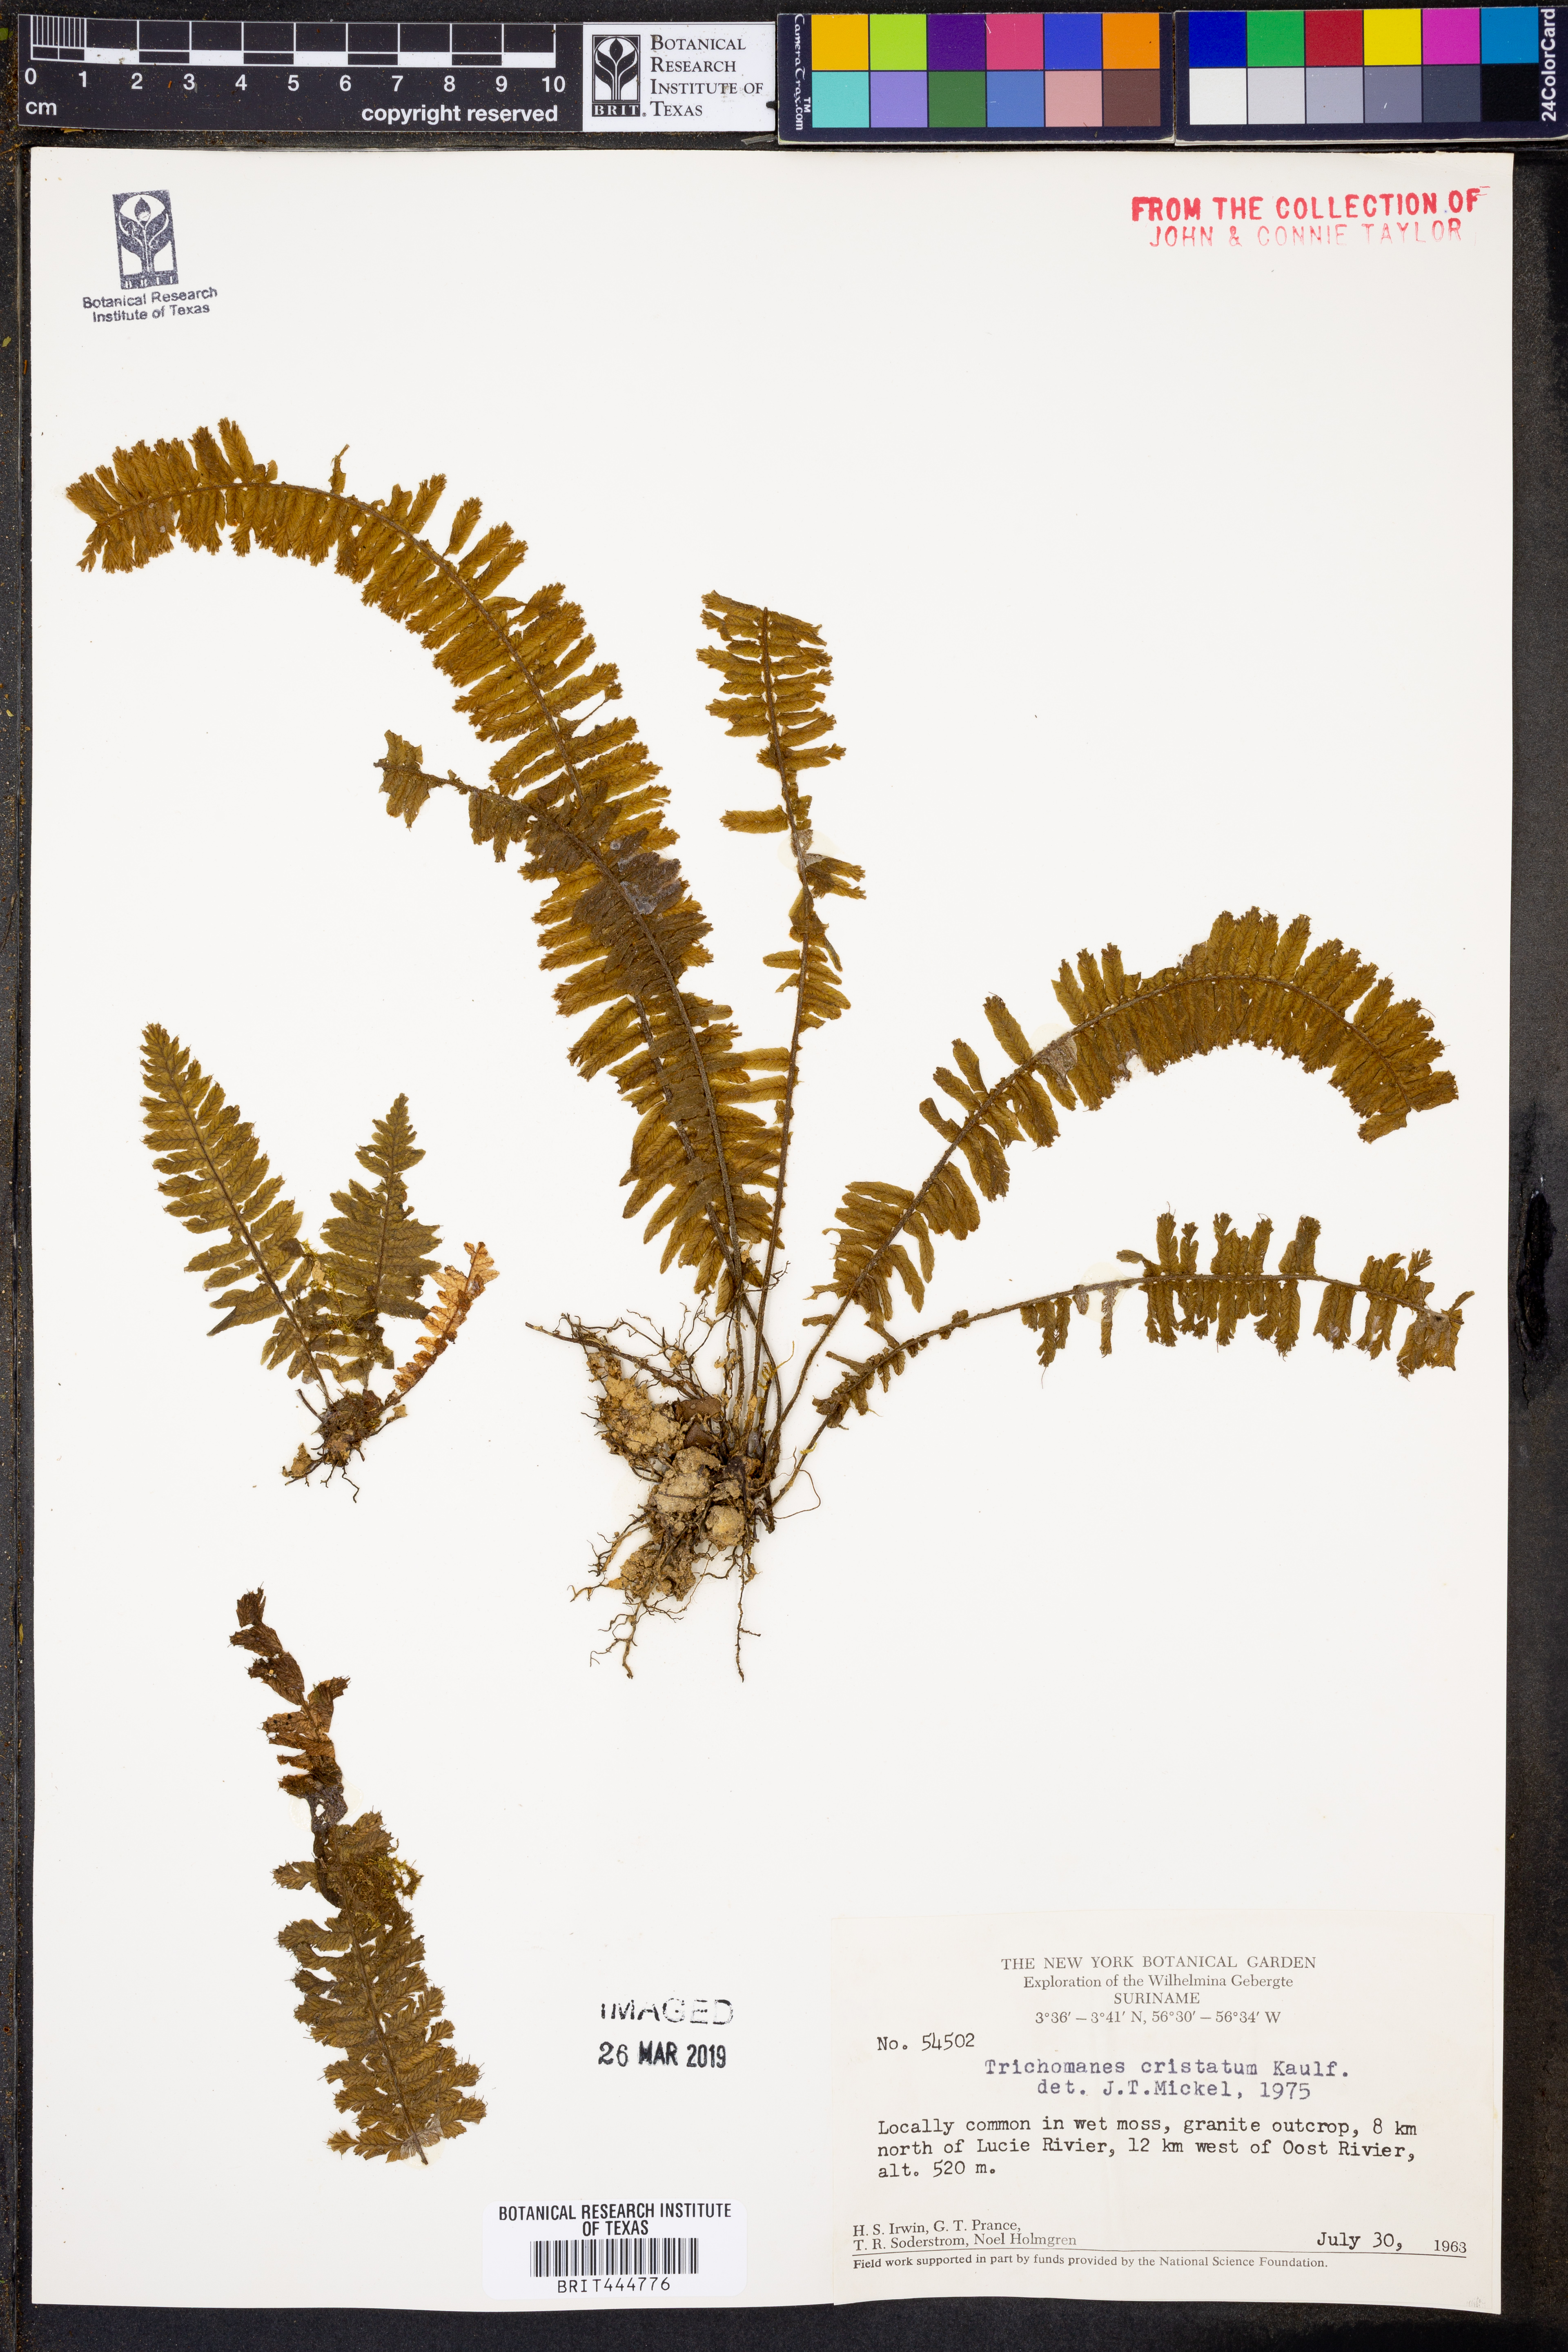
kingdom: Plantae
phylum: Tracheophyta
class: Polypodiopsida
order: Hymenophyllales
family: Hymenophyllaceae
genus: Trichomanes
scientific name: Trichomanes cristatum
